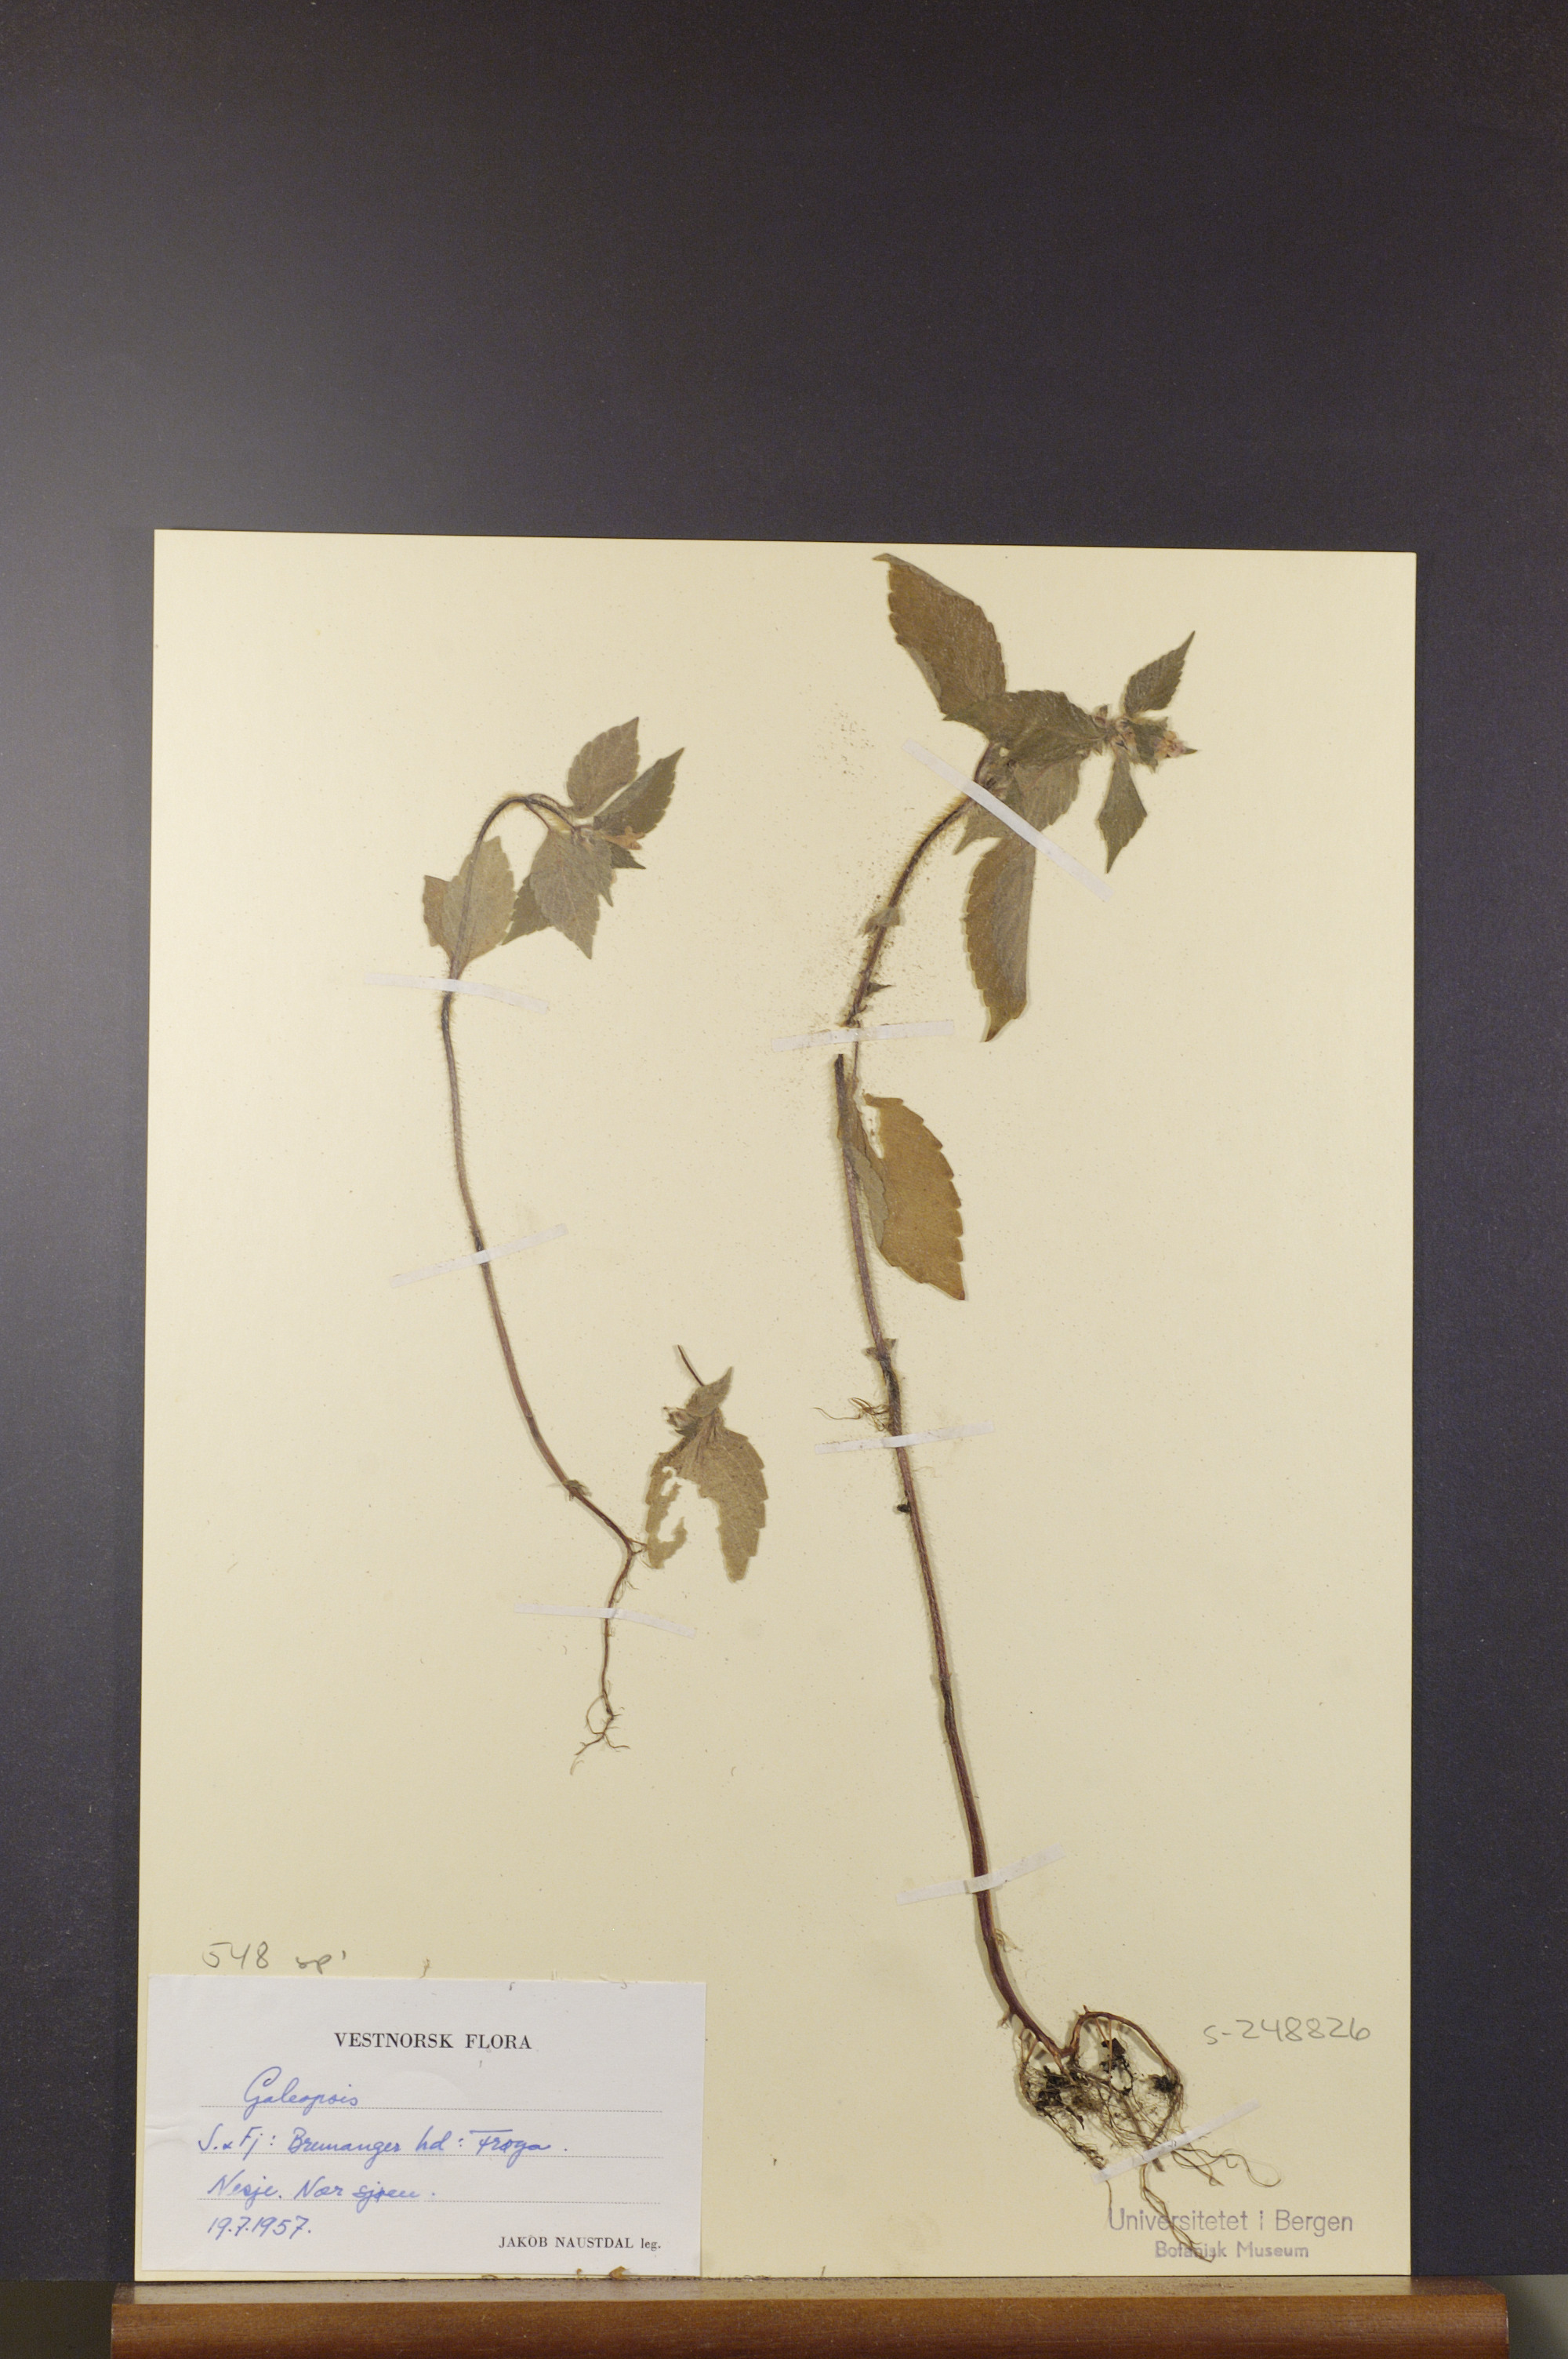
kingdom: Plantae
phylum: Tracheophyta
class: Magnoliopsida
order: Lamiales
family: Lamiaceae
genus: Galeopsis
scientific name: Galeopsis
